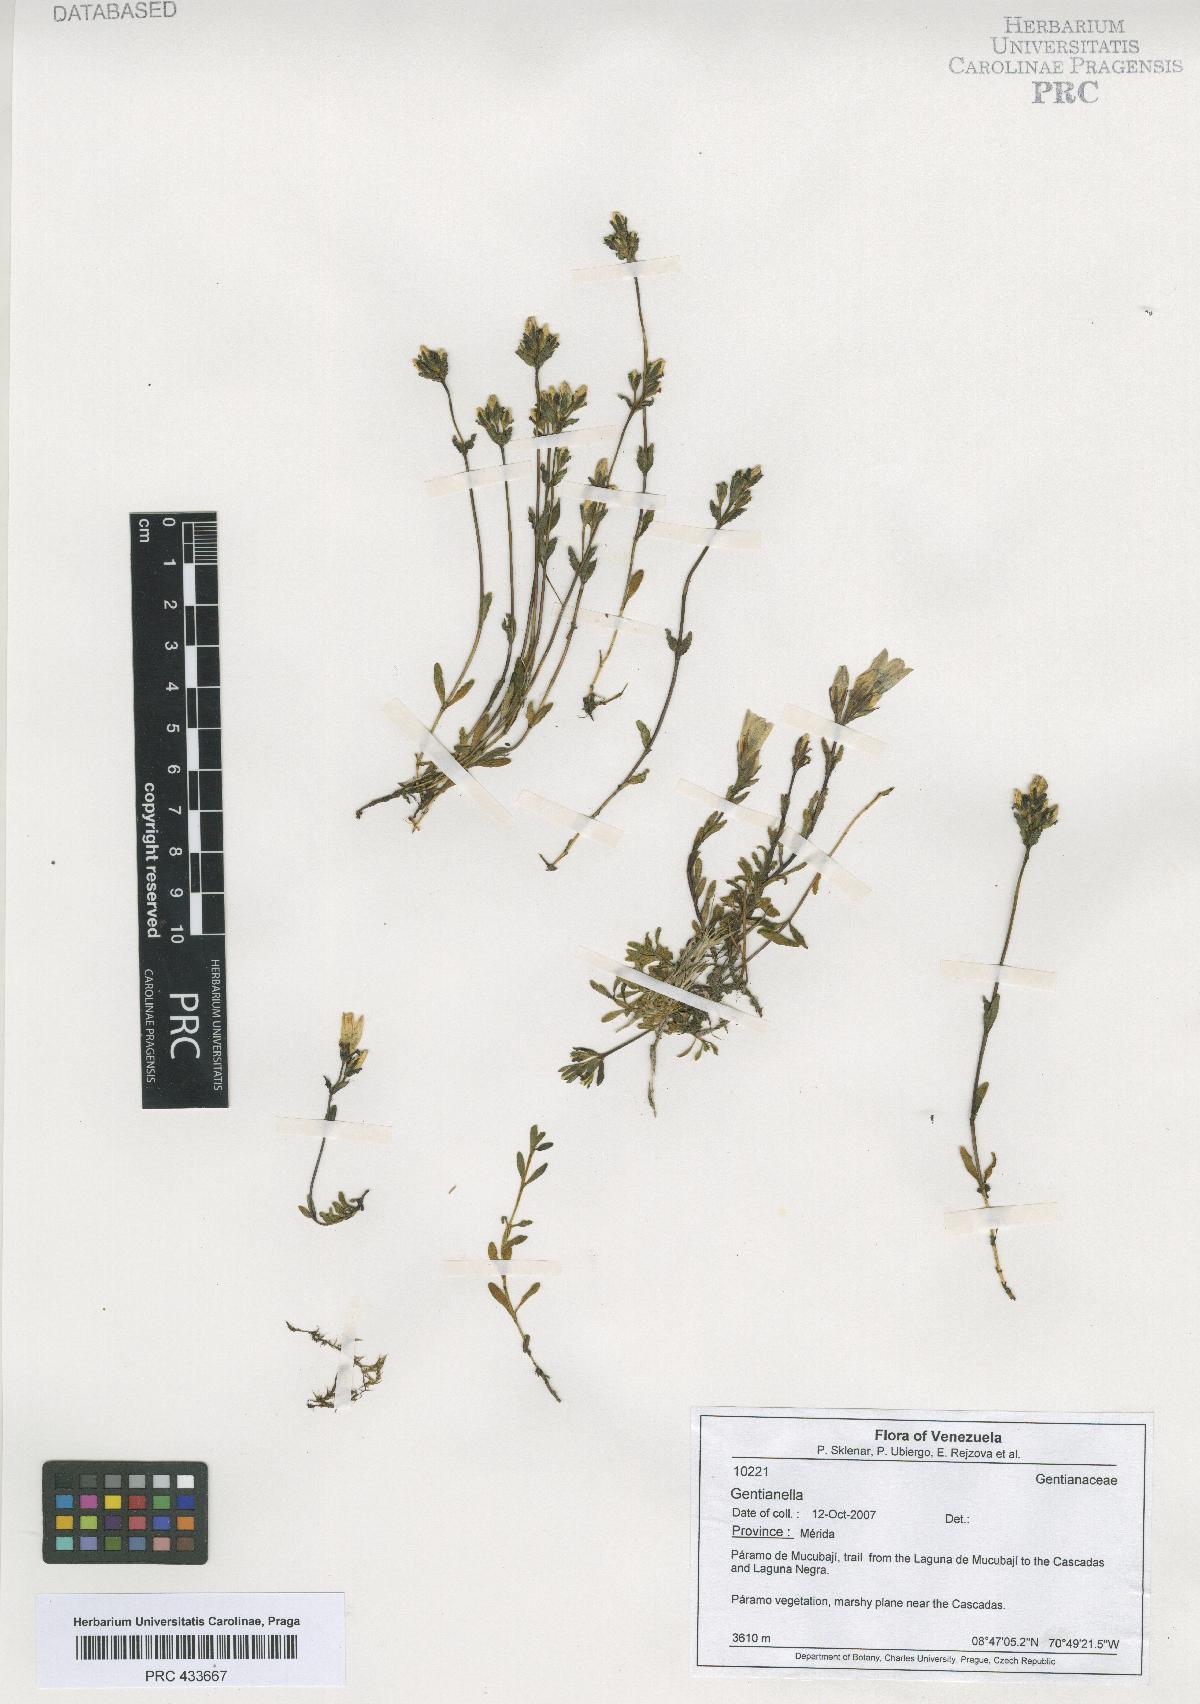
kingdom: Plantae
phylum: Tracheophyta
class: Magnoliopsida
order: Gentianales
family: Gentianaceae
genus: Gentianella
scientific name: Gentianella
